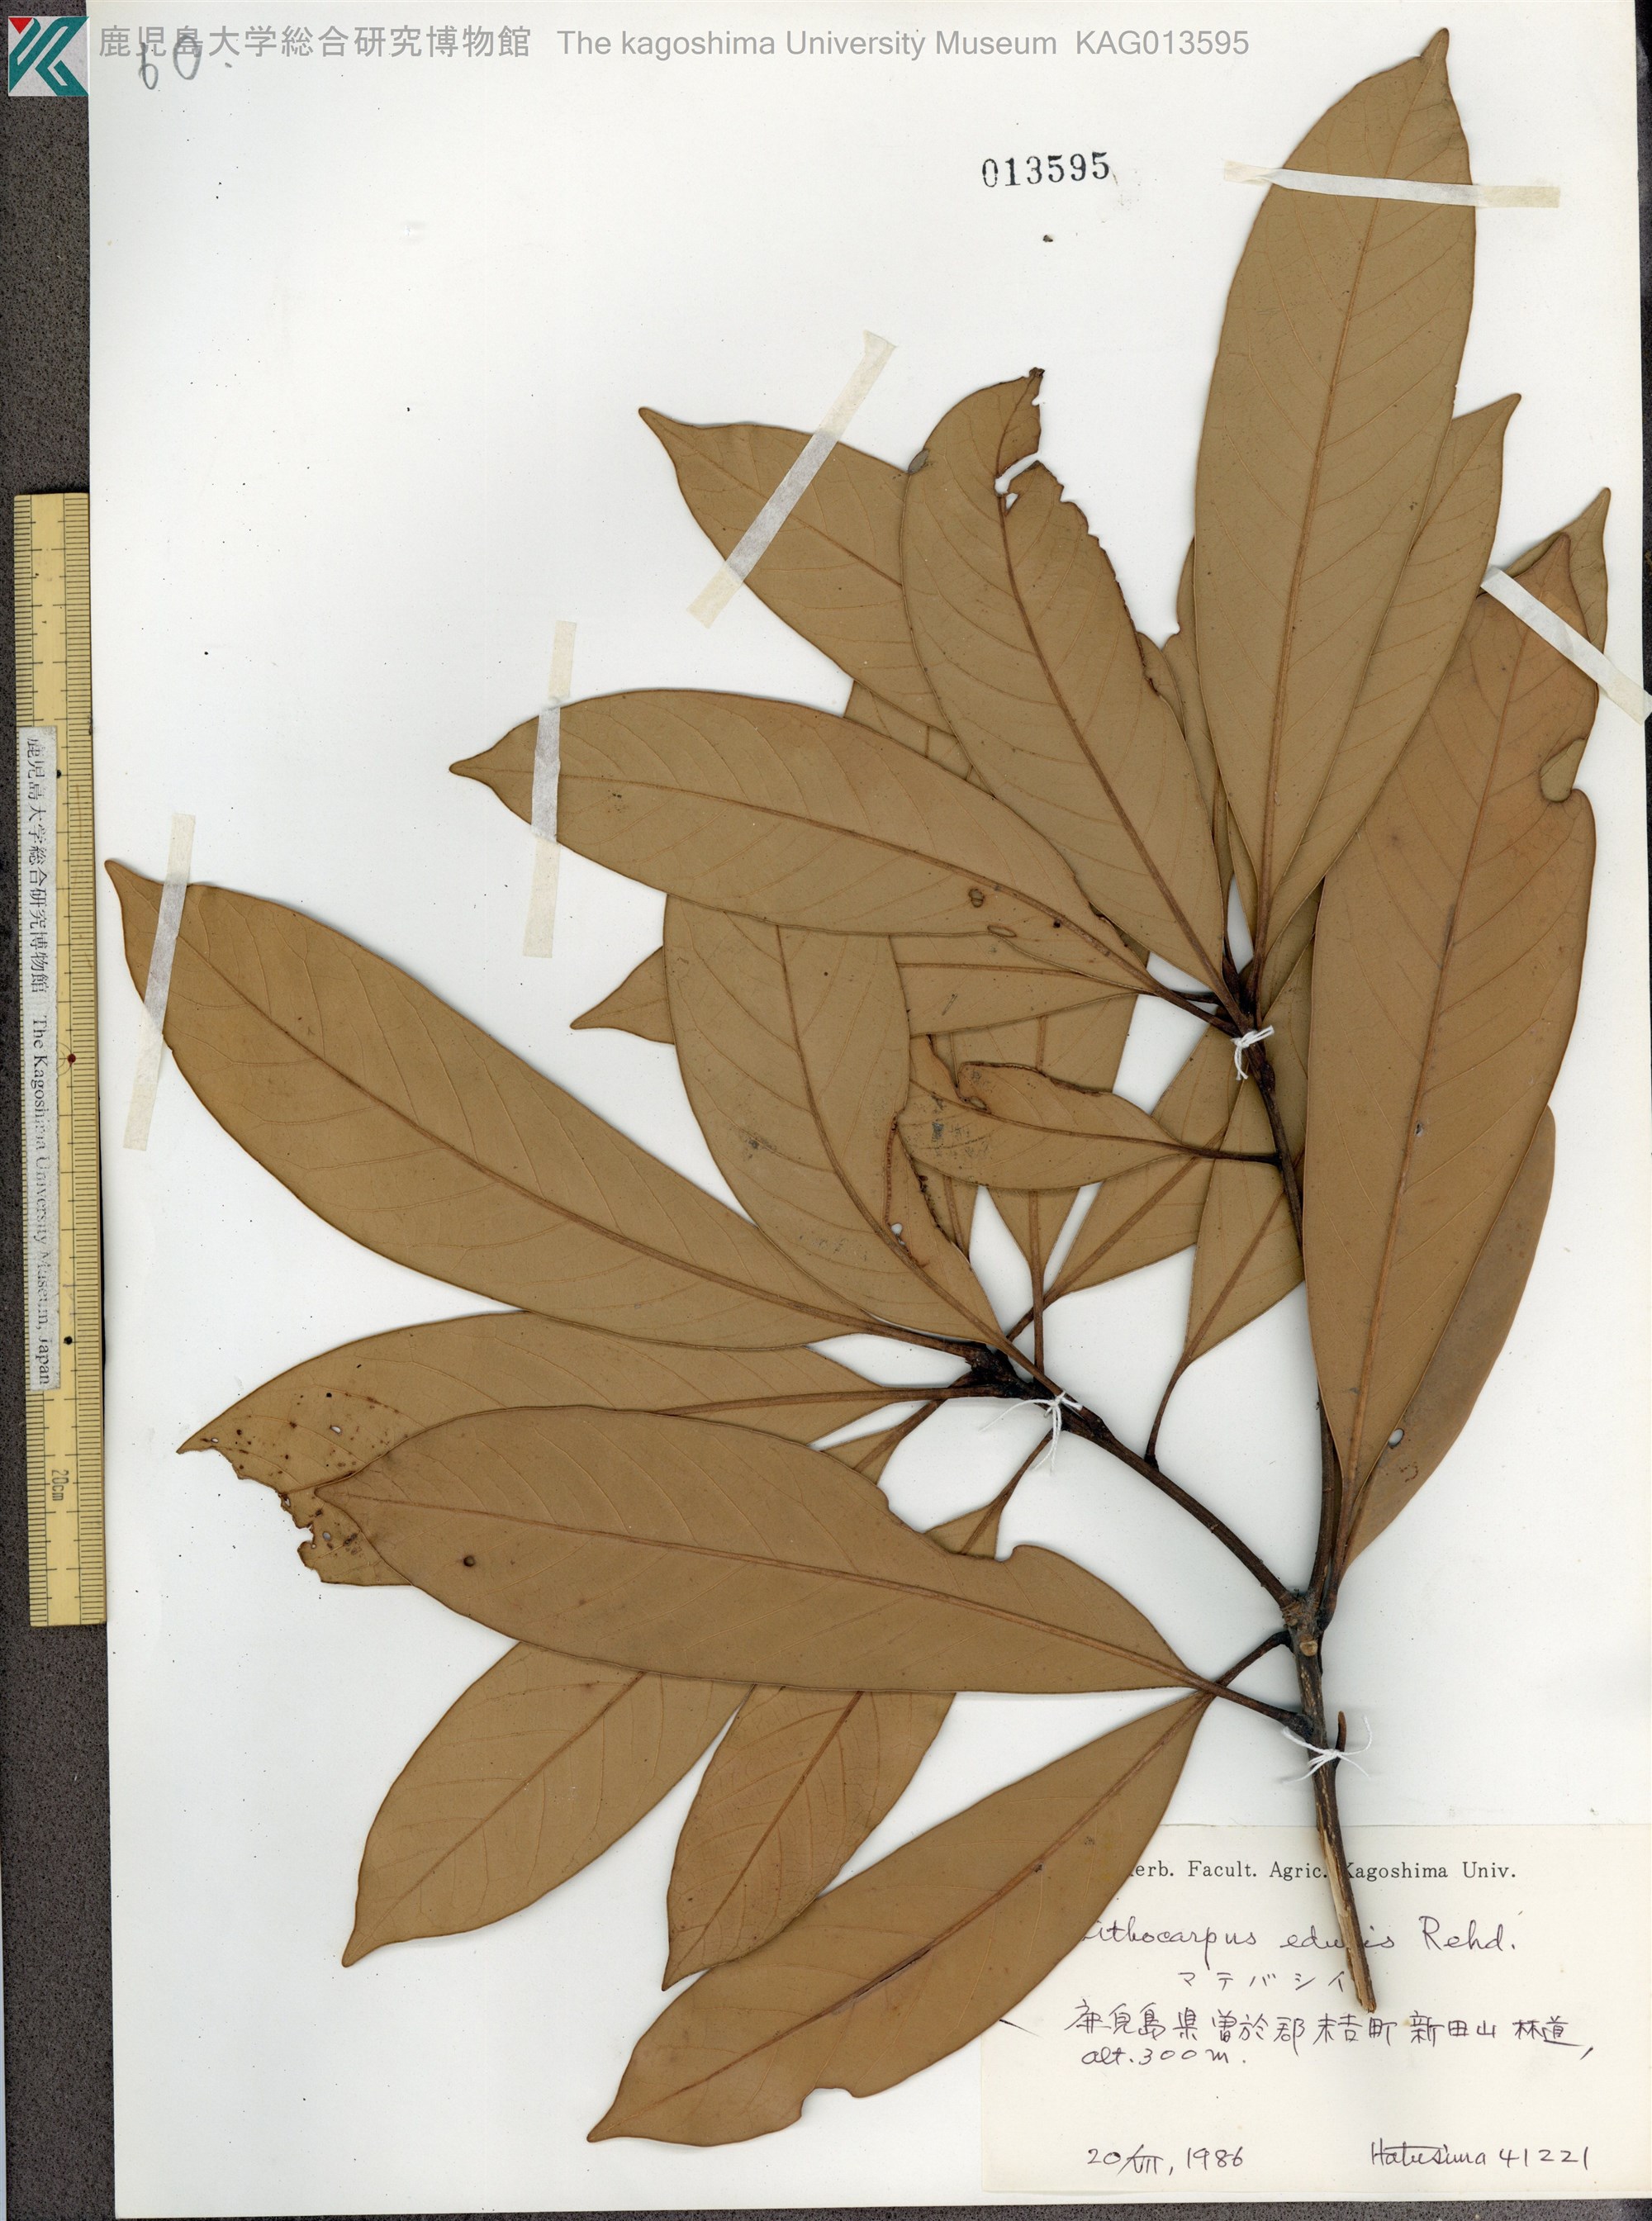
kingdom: Plantae
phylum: Tracheophyta
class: Magnoliopsida
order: Fagales
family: Fagaceae
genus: Lithocarpus
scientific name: Lithocarpus edulis
